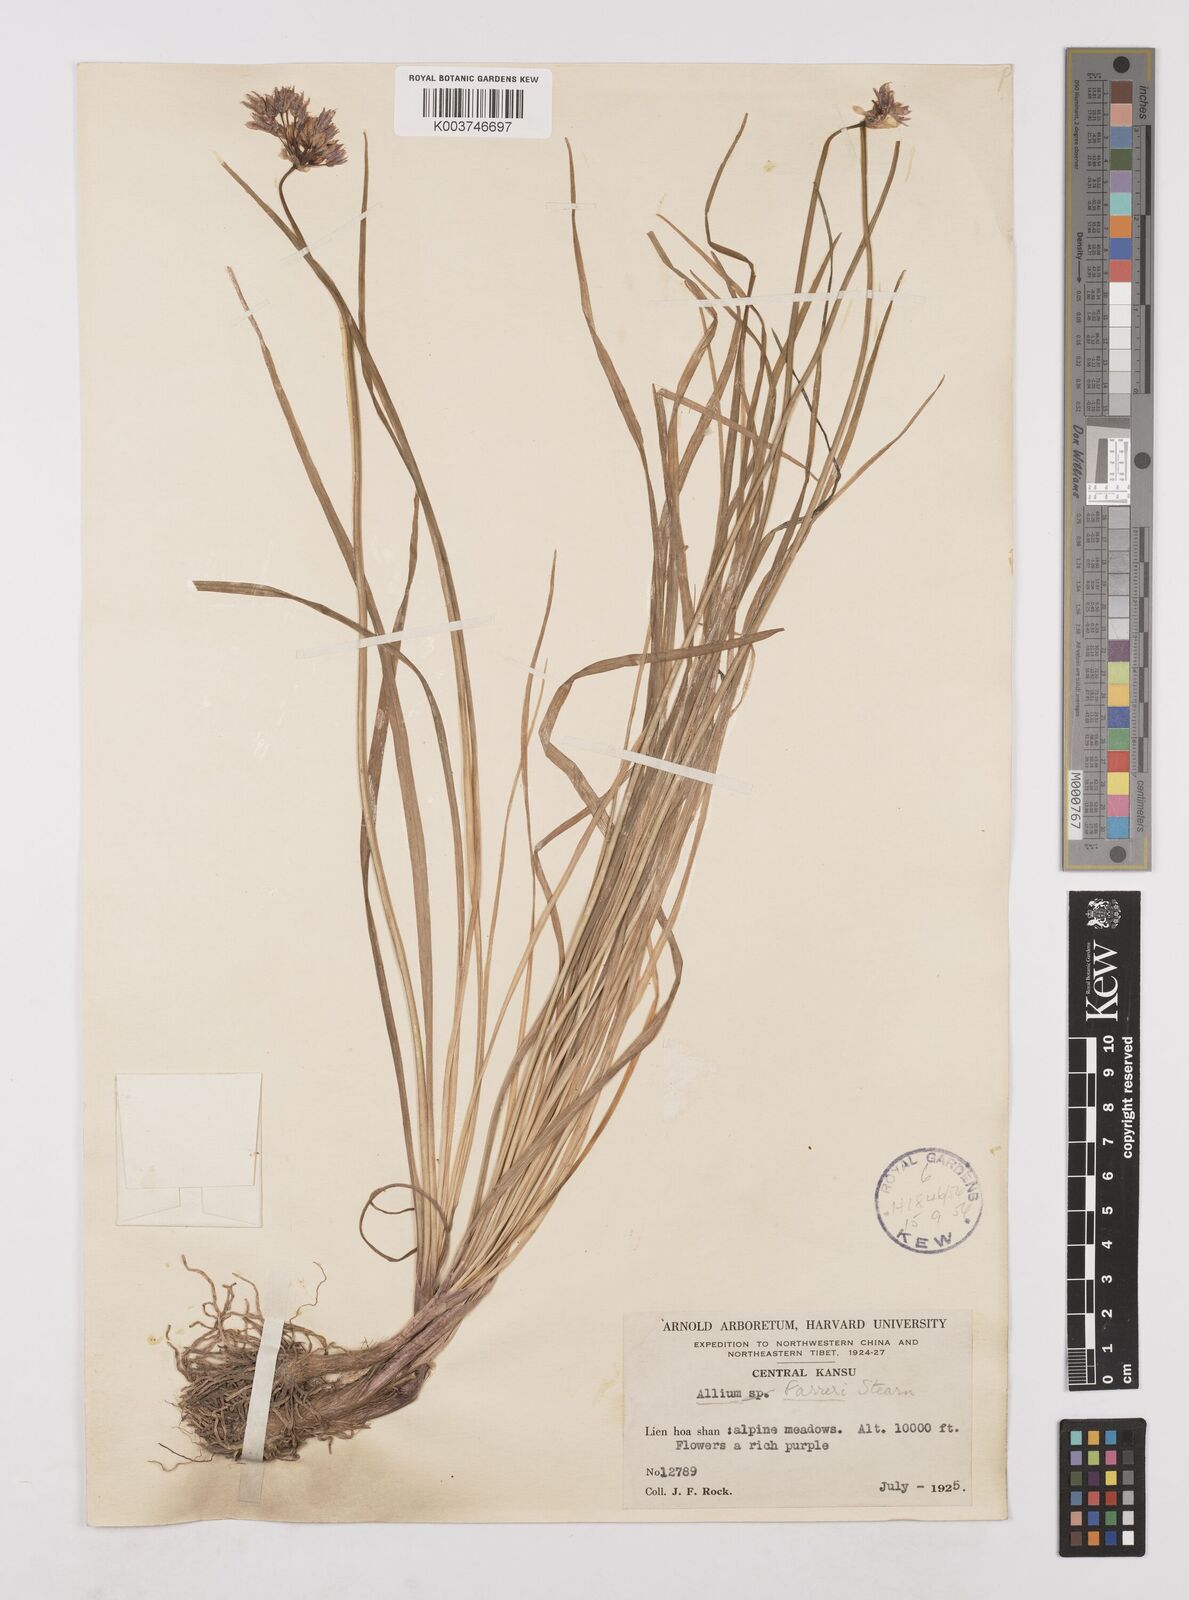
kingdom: Plantae
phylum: Tracheophyta
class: Liliopsida
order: Asparagales
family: Amaryllidaceae
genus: Allium
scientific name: Allium farreri
